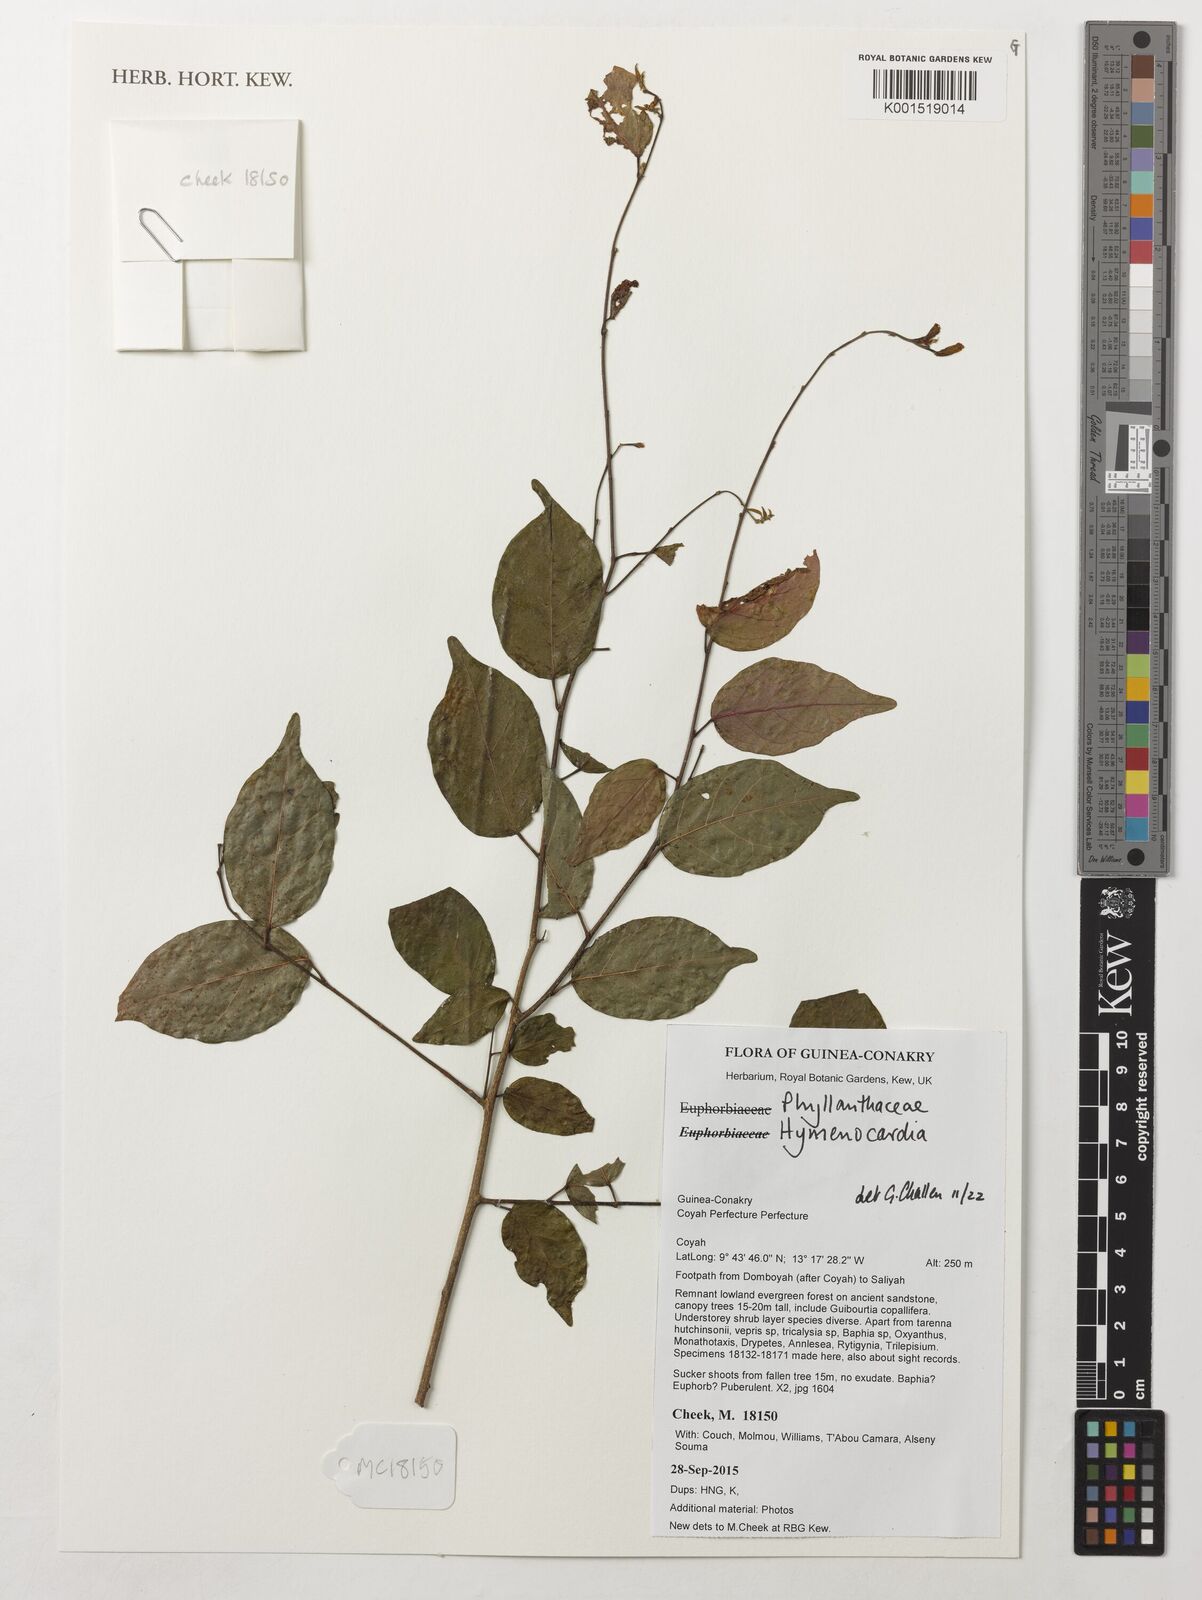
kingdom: Plantae
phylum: Tracheophyta
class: Magnoliopsida
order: Malpighiales
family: Phyllanthaceae
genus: Hymenocardia
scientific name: Hymenocardia
